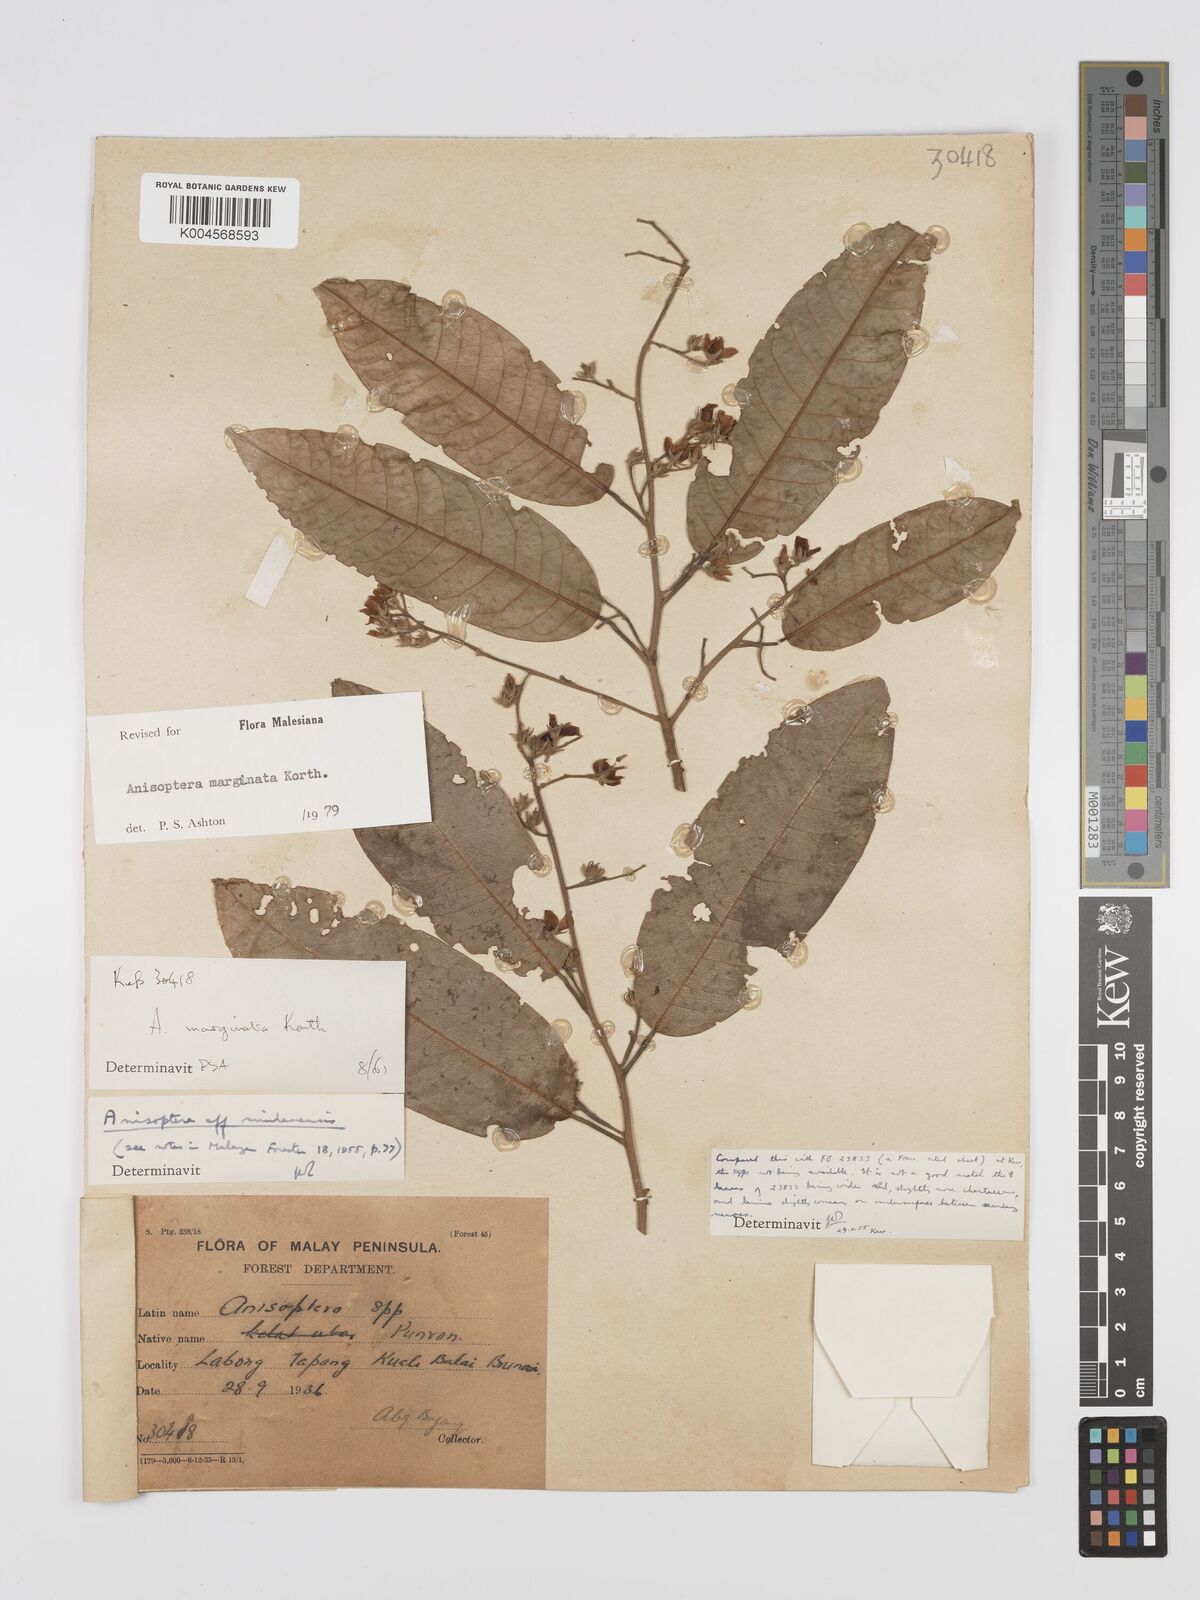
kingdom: Plantae
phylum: Tracheophyta
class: Magnoliopsida
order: Malvales
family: Dipterocarpaceae
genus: Anisoptera
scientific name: Anisoptera marginata
